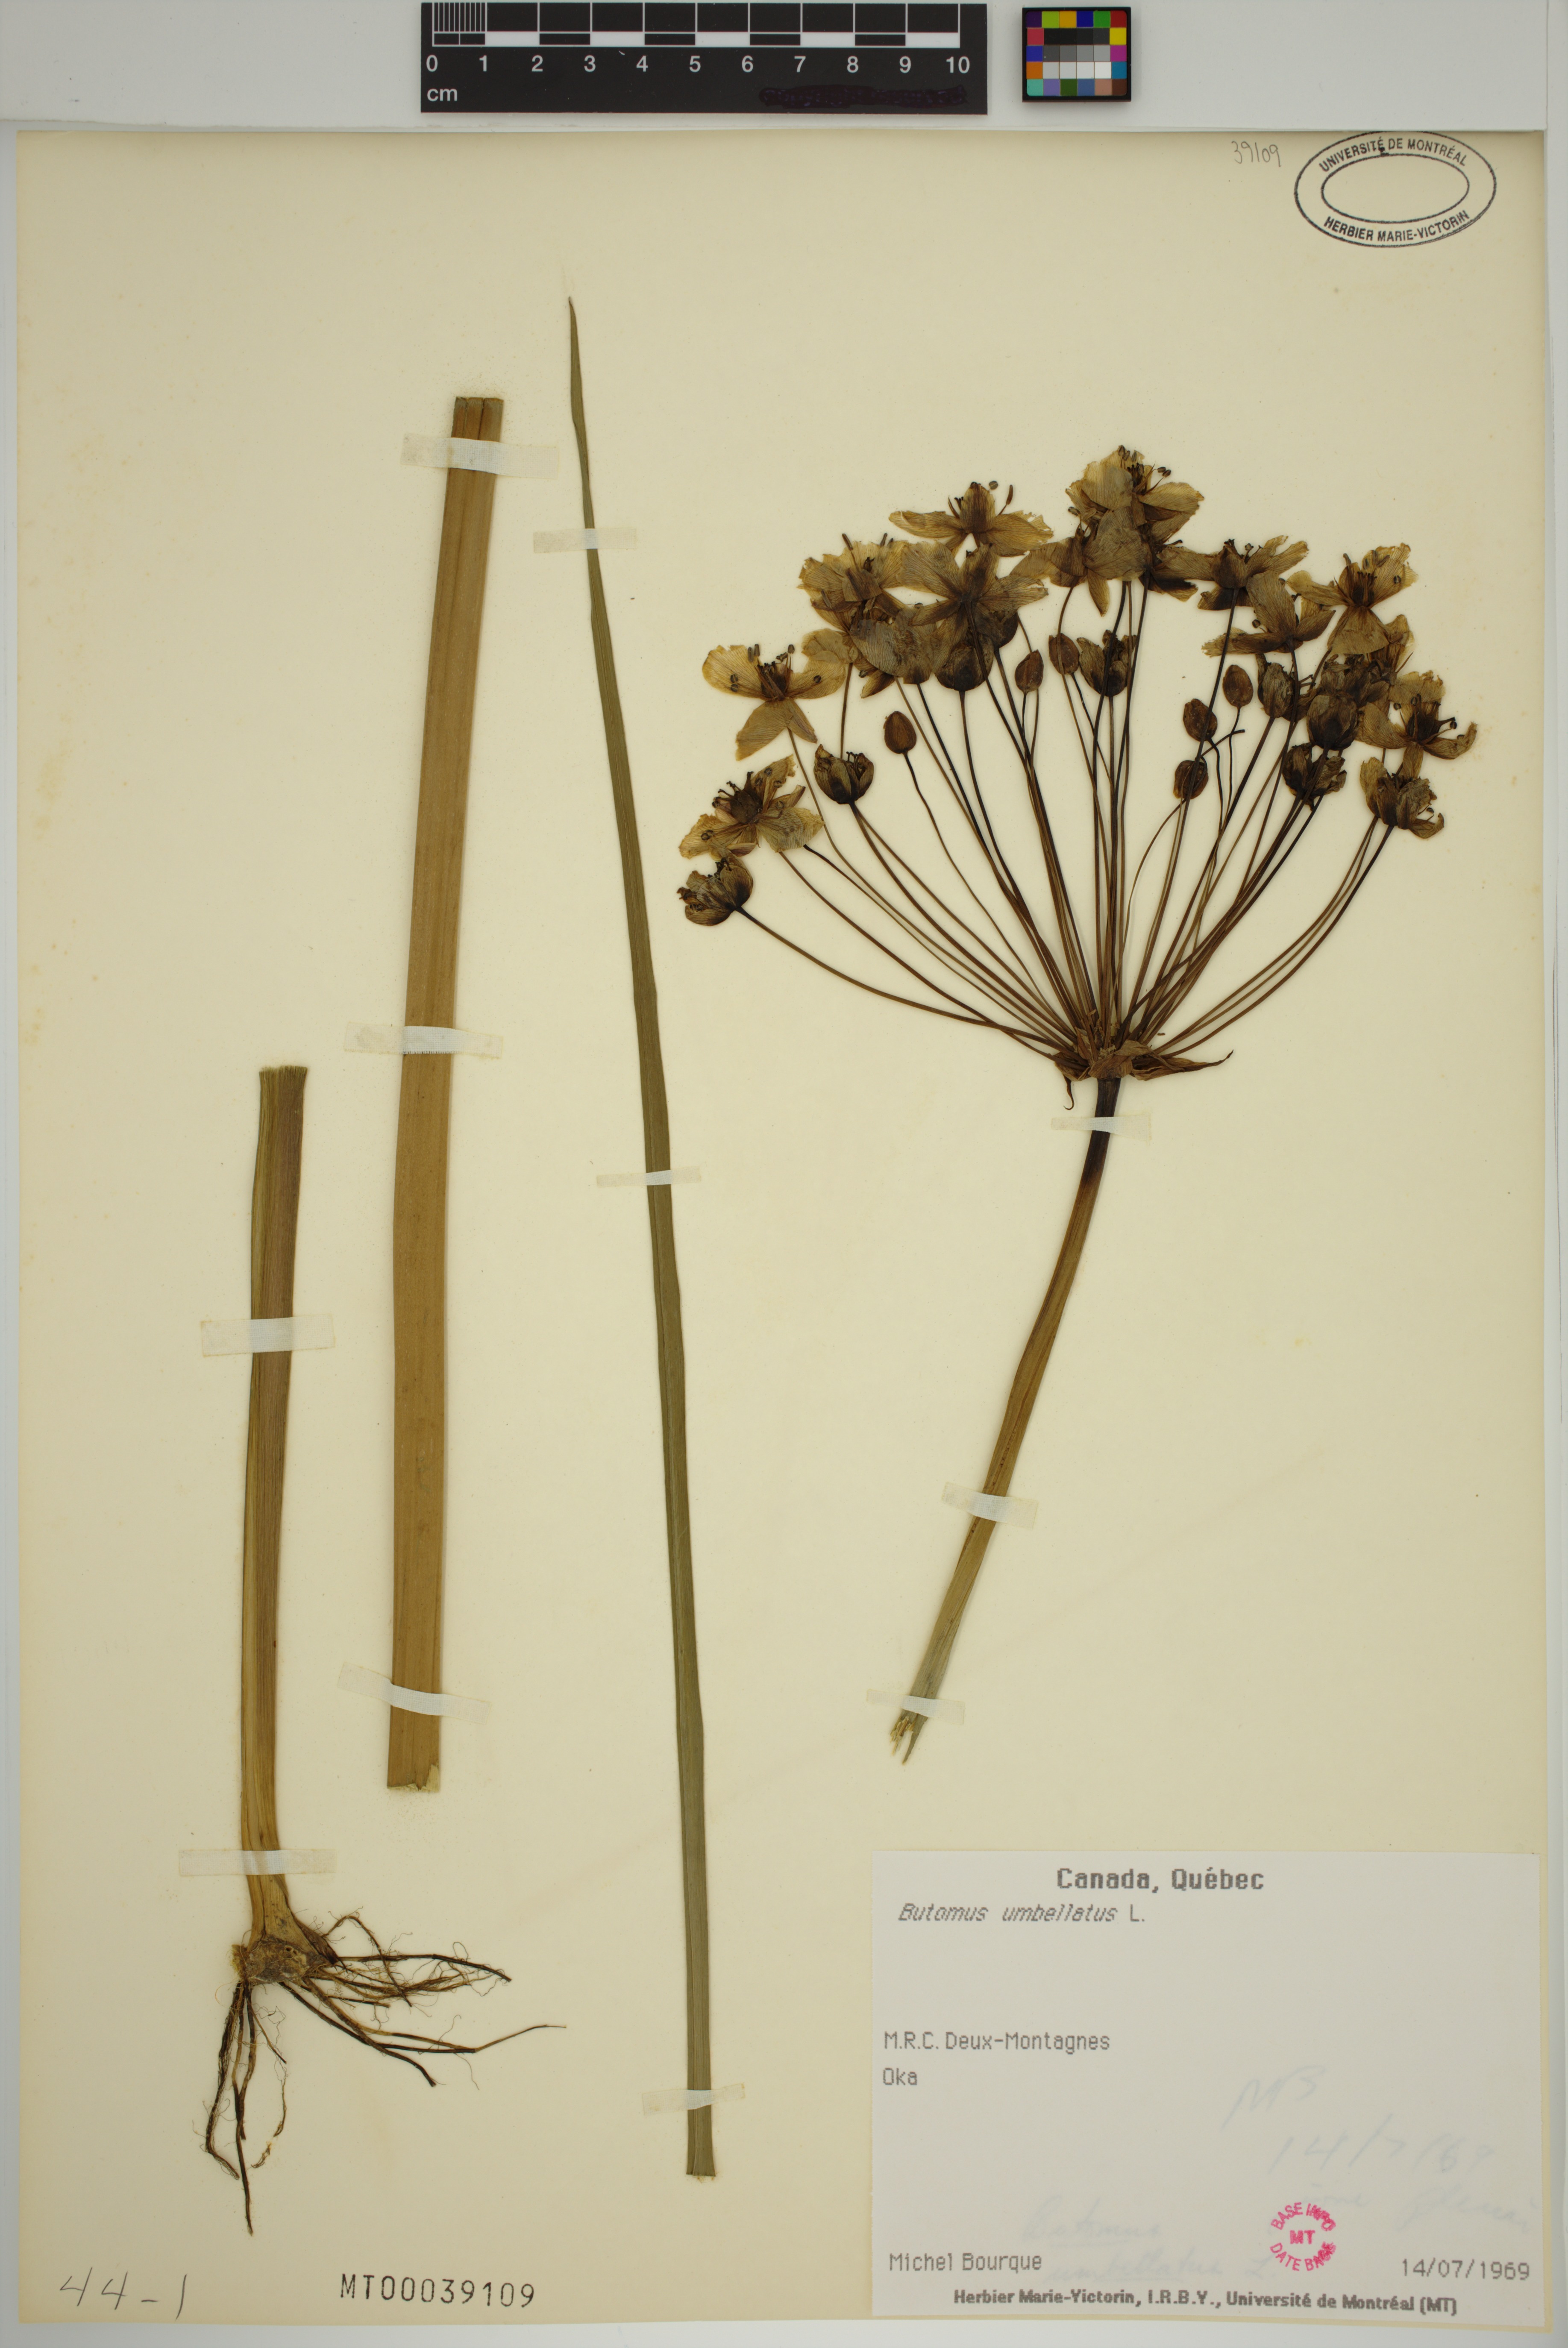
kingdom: Plantae
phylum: Tracheophyta
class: Liliopsida
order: Alismatales
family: Butomaceae
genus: Butomus
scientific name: Butomus umbellatus
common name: Flowering-rush
